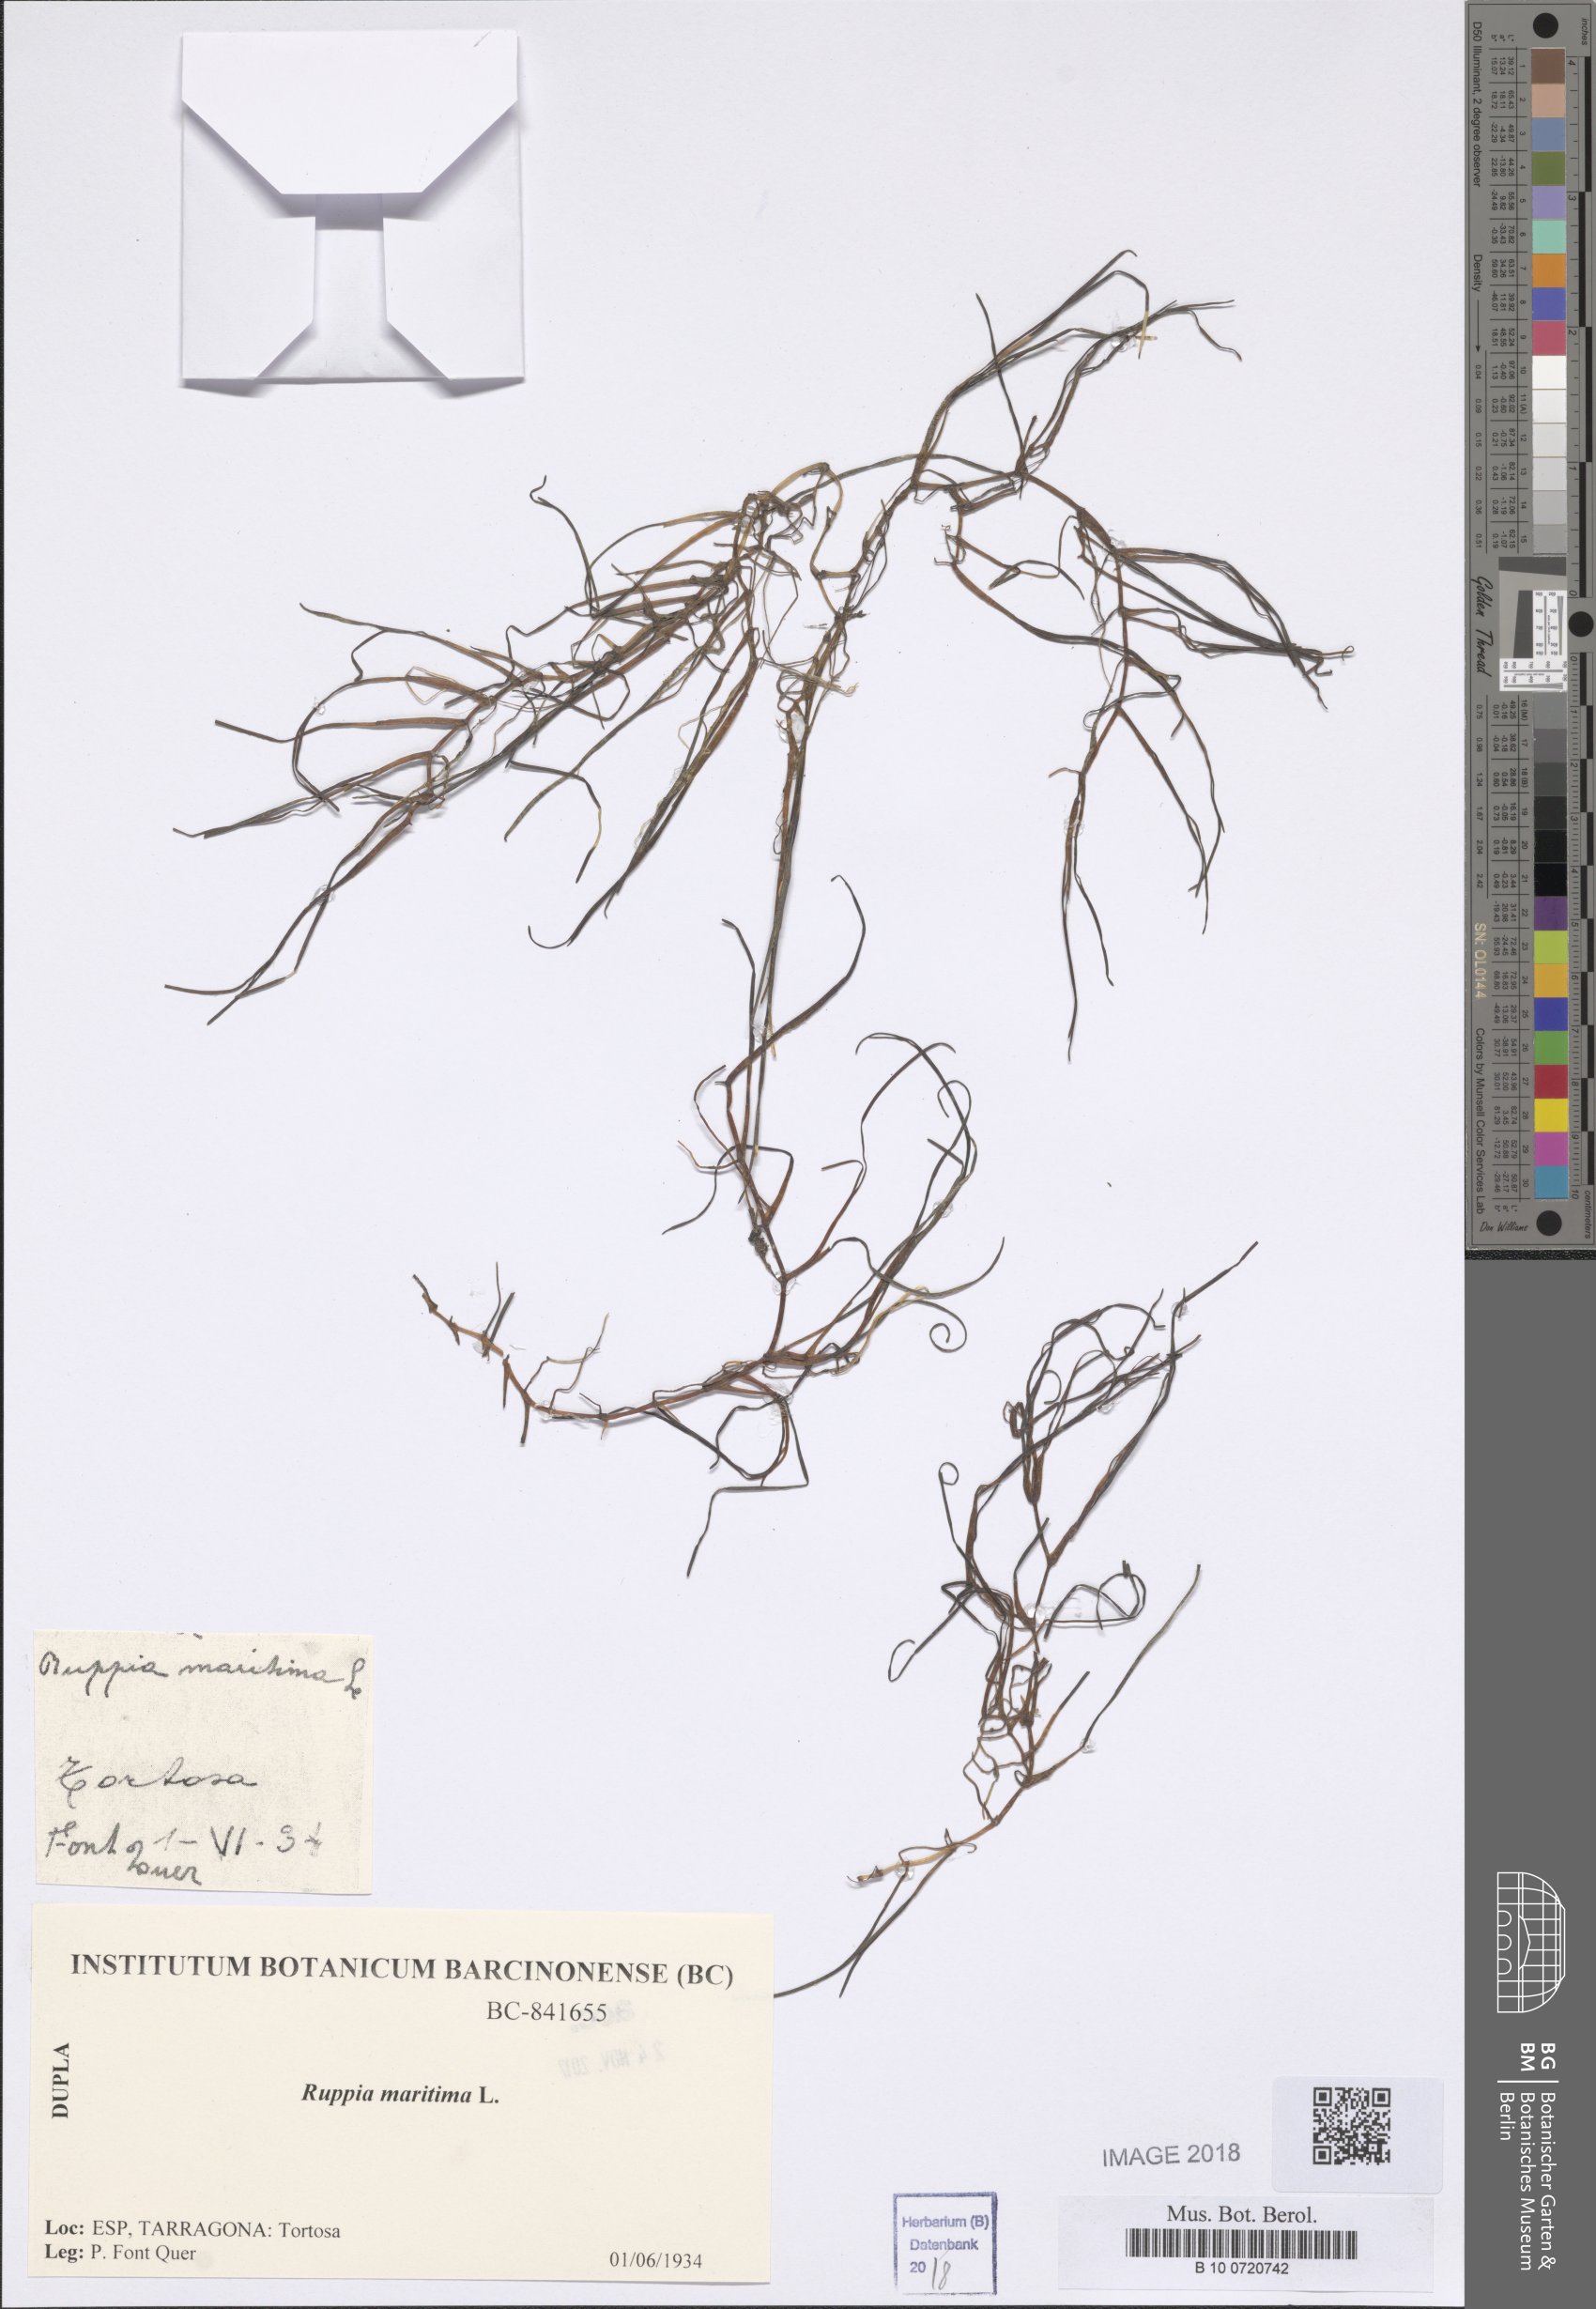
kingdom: Plantae
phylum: Tracheophyta
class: Liliopsida
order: Alismatales
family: Ruppiaceae
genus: Ruppia
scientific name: Ruppia maritima
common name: Beaked tasselweed
